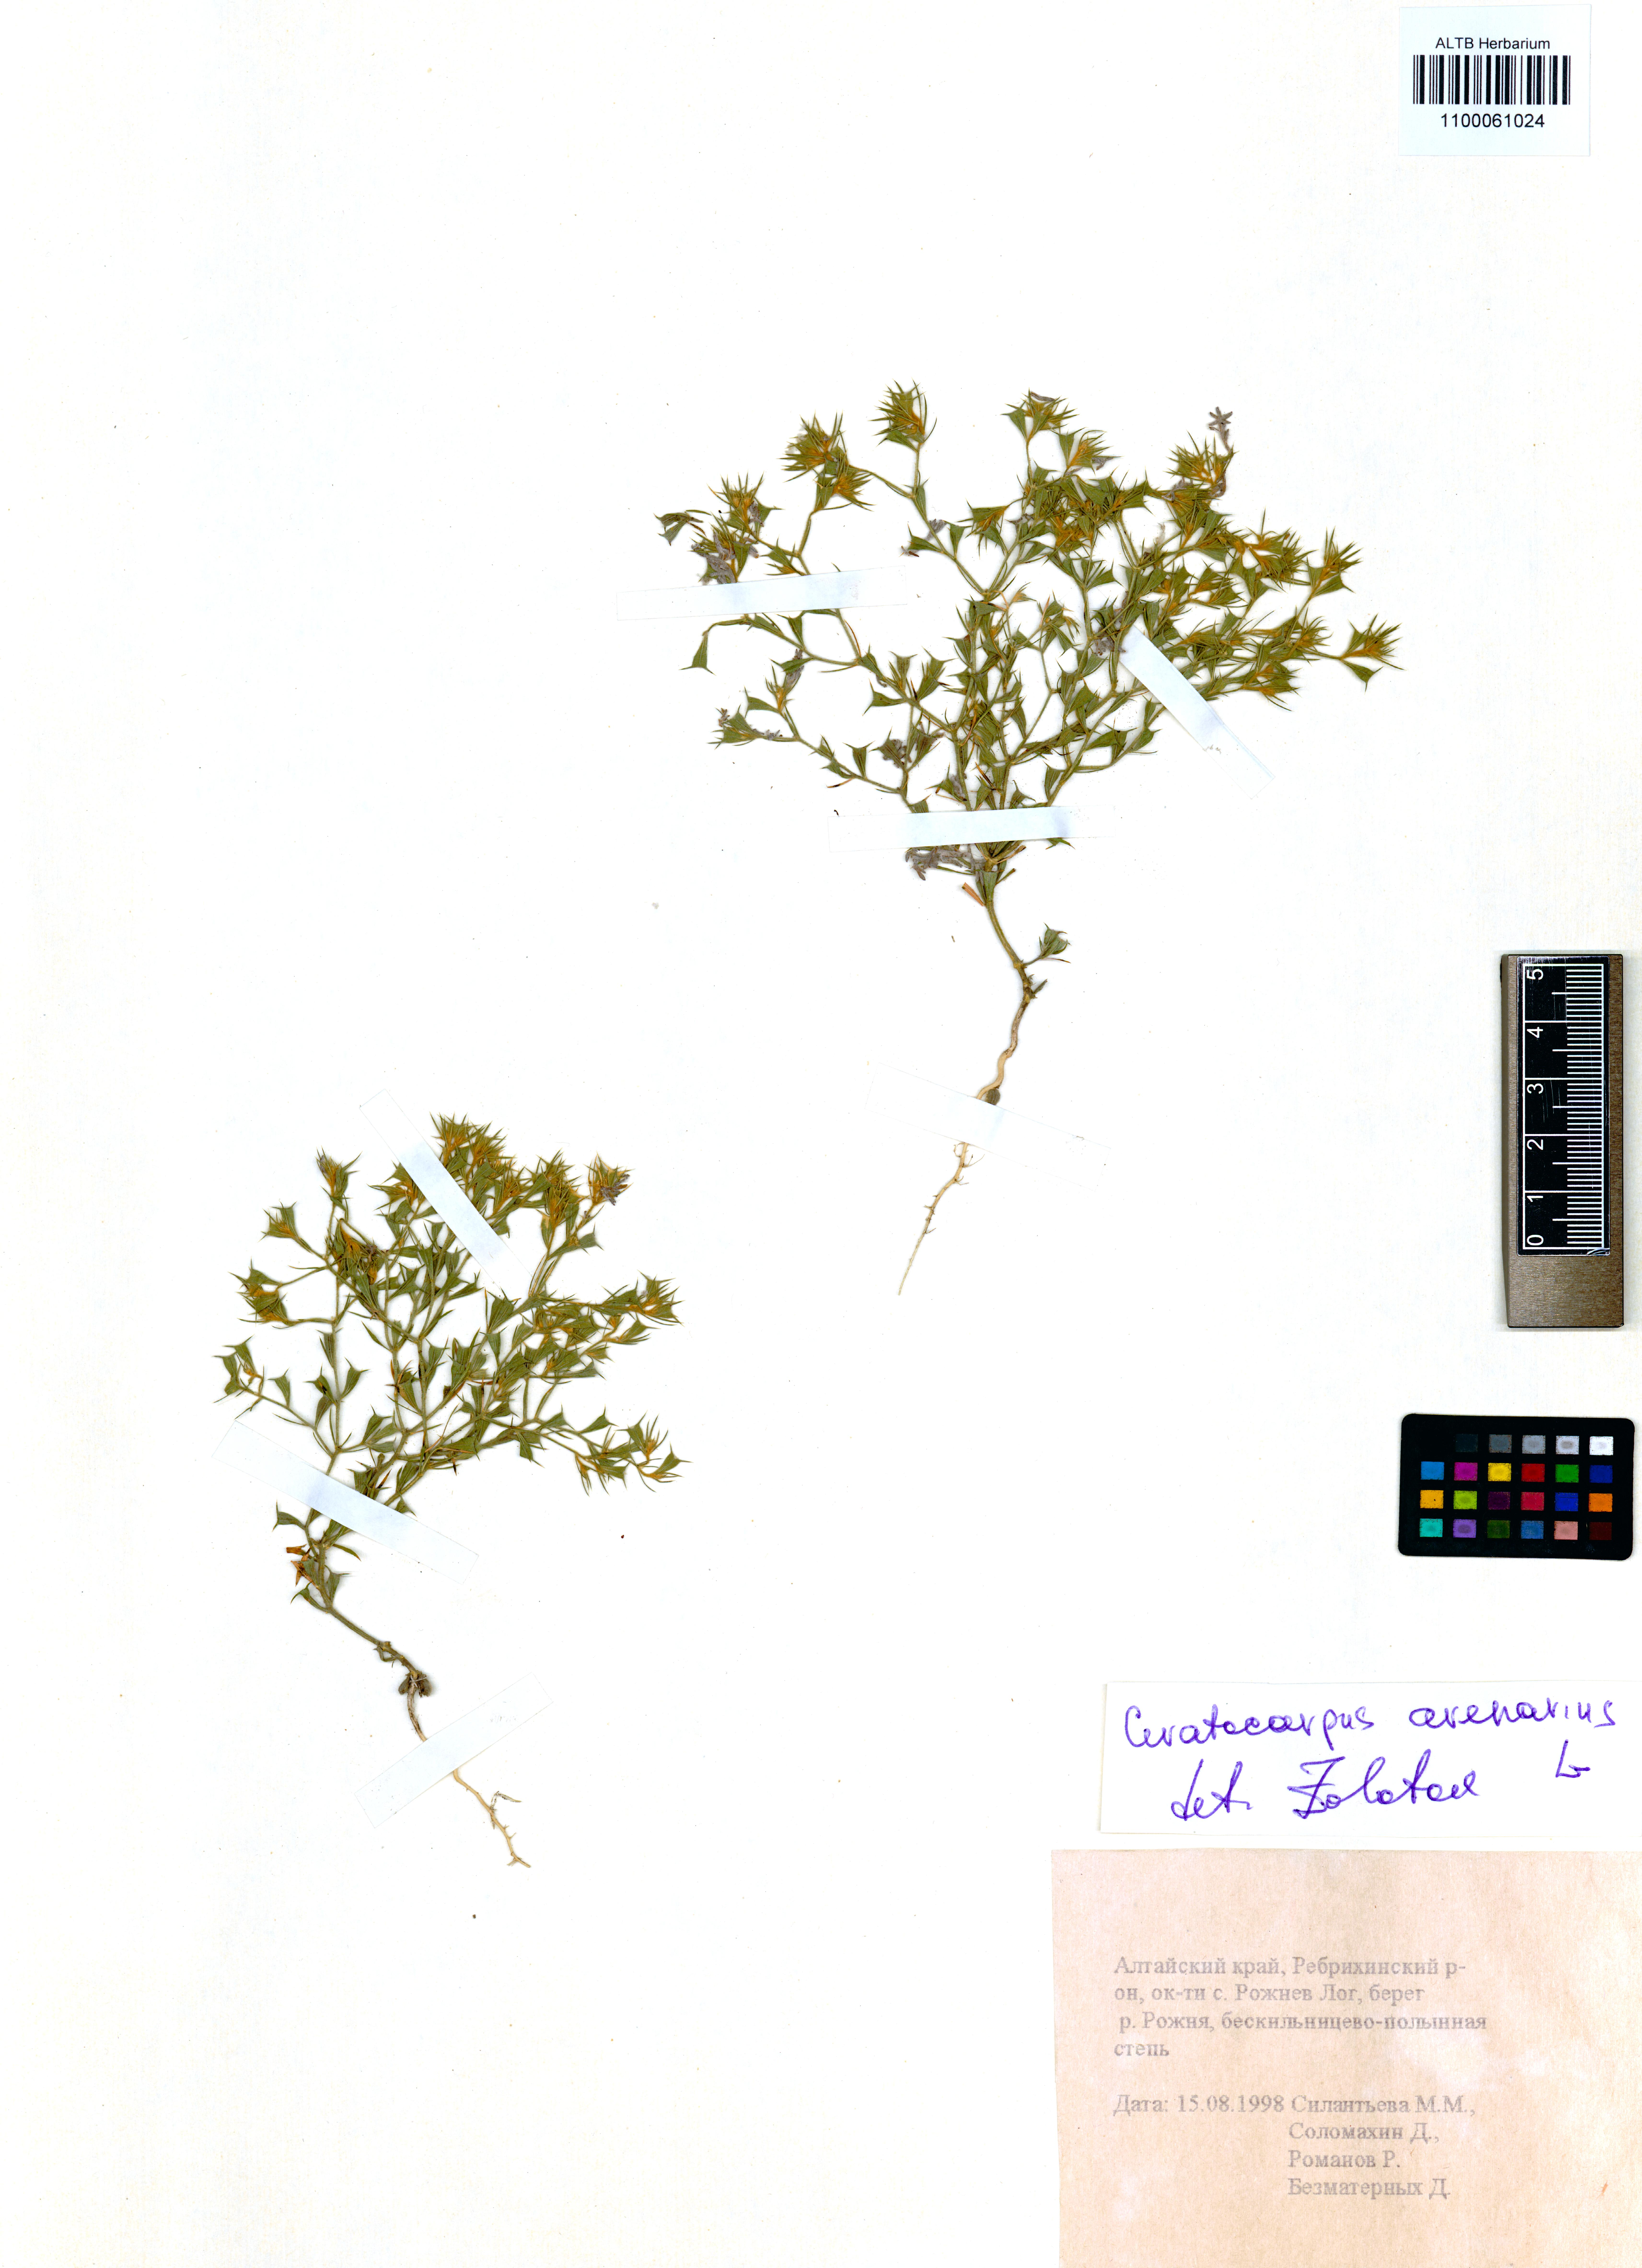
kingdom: Plantae
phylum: Tracheophyta
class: Magnoliopsida
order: Caryophyllales
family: Amaranthaceae
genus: Ceratocarpus
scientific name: Ceratocarpus arenarius
